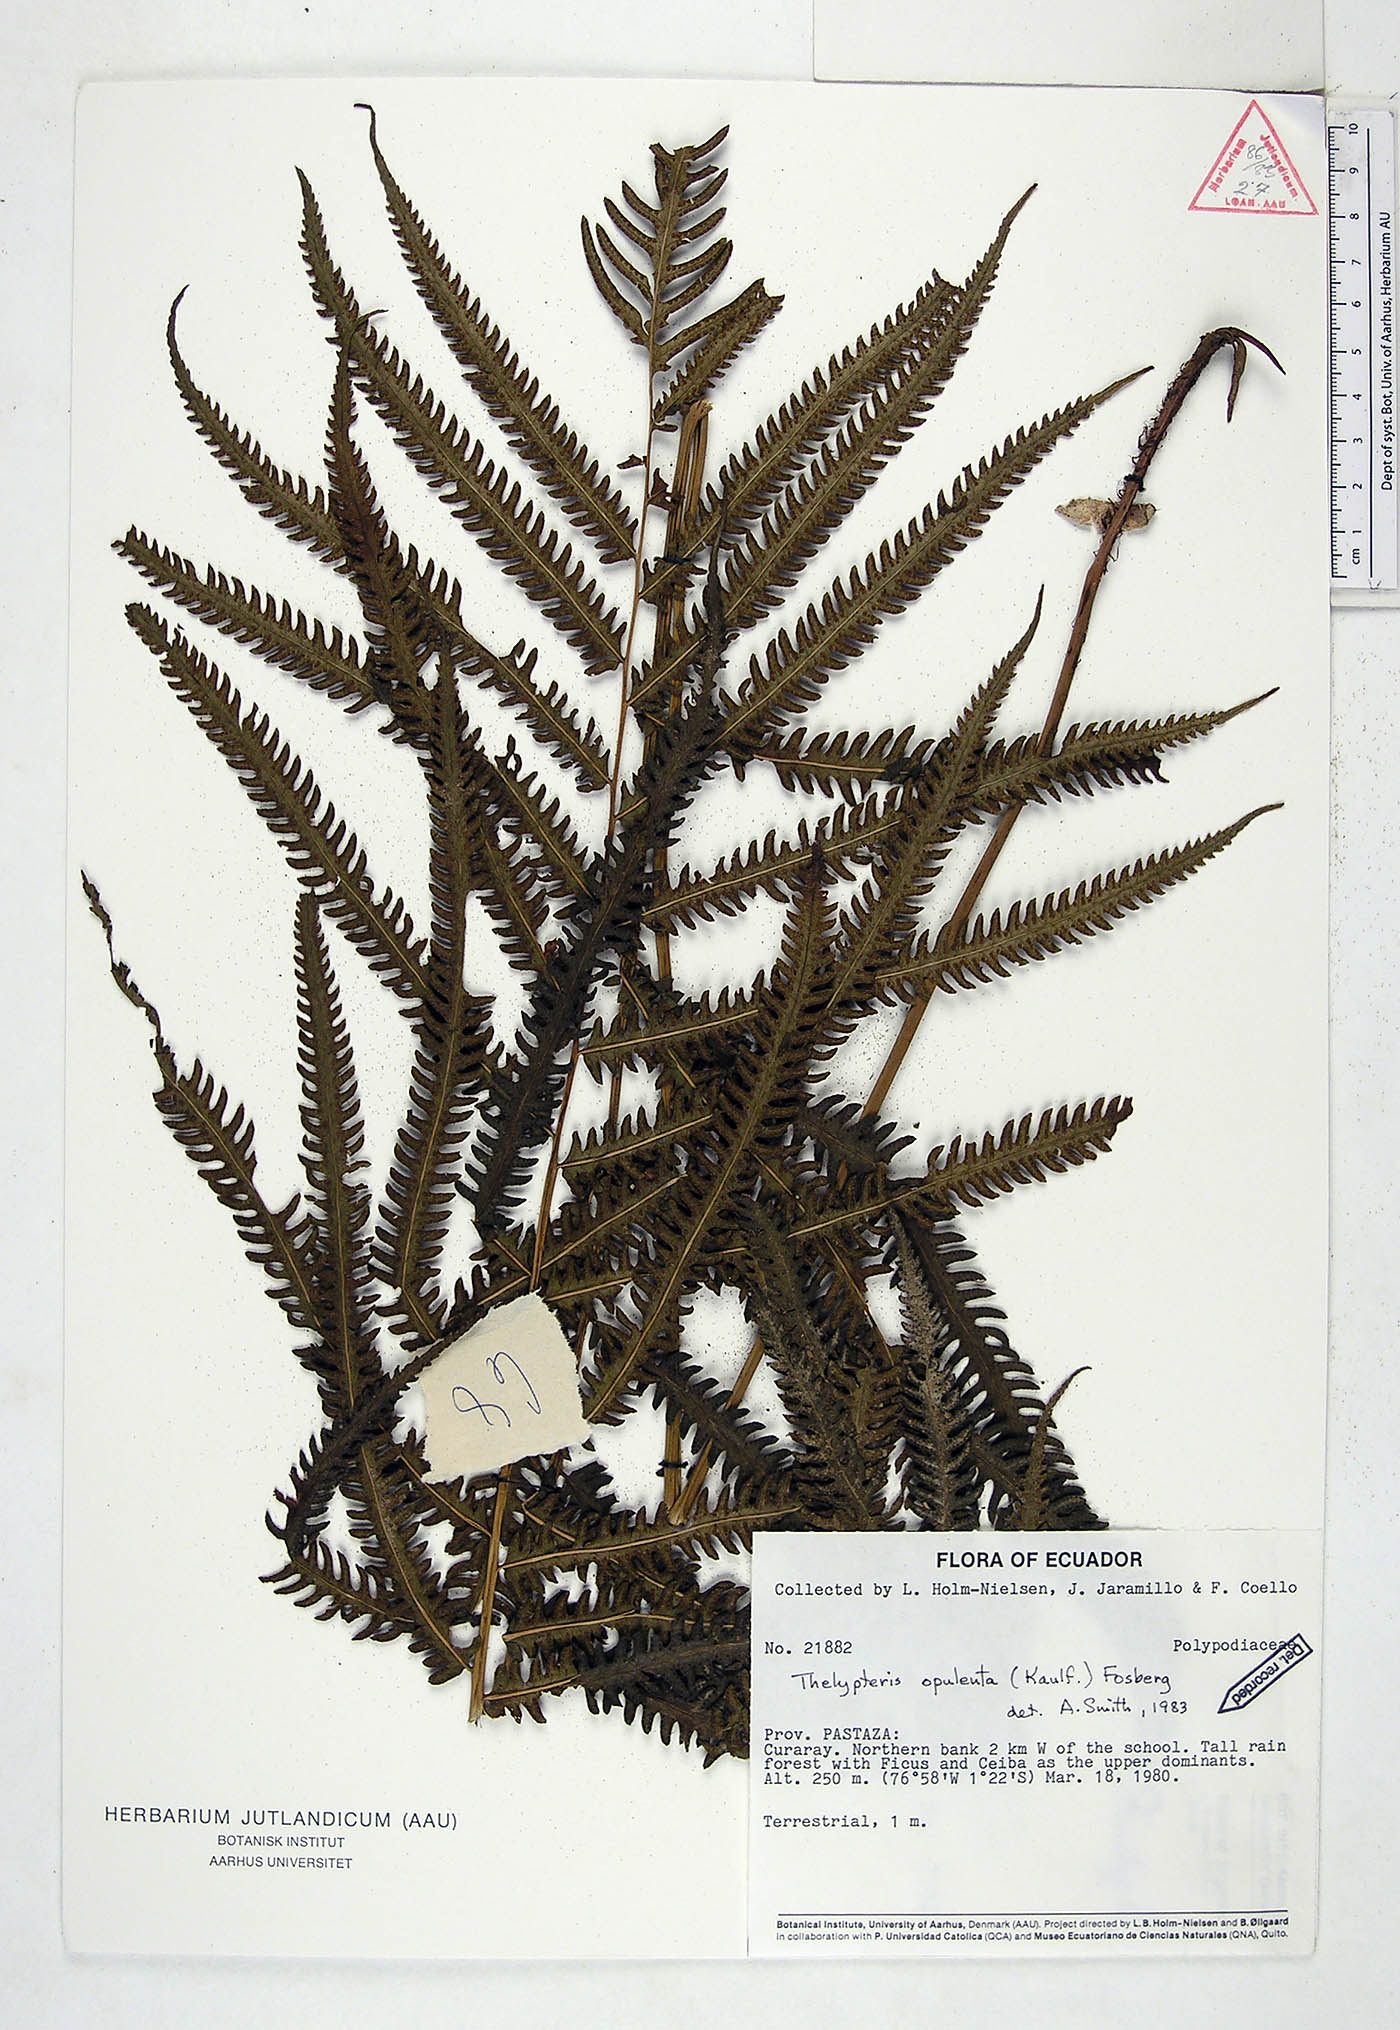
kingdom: Plantae
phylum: Tracheophyta
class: Polypodiopsida
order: Polypodiales
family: Thelypteridaceae
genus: Amblovenatum
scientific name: Amblovenatum opulentum
